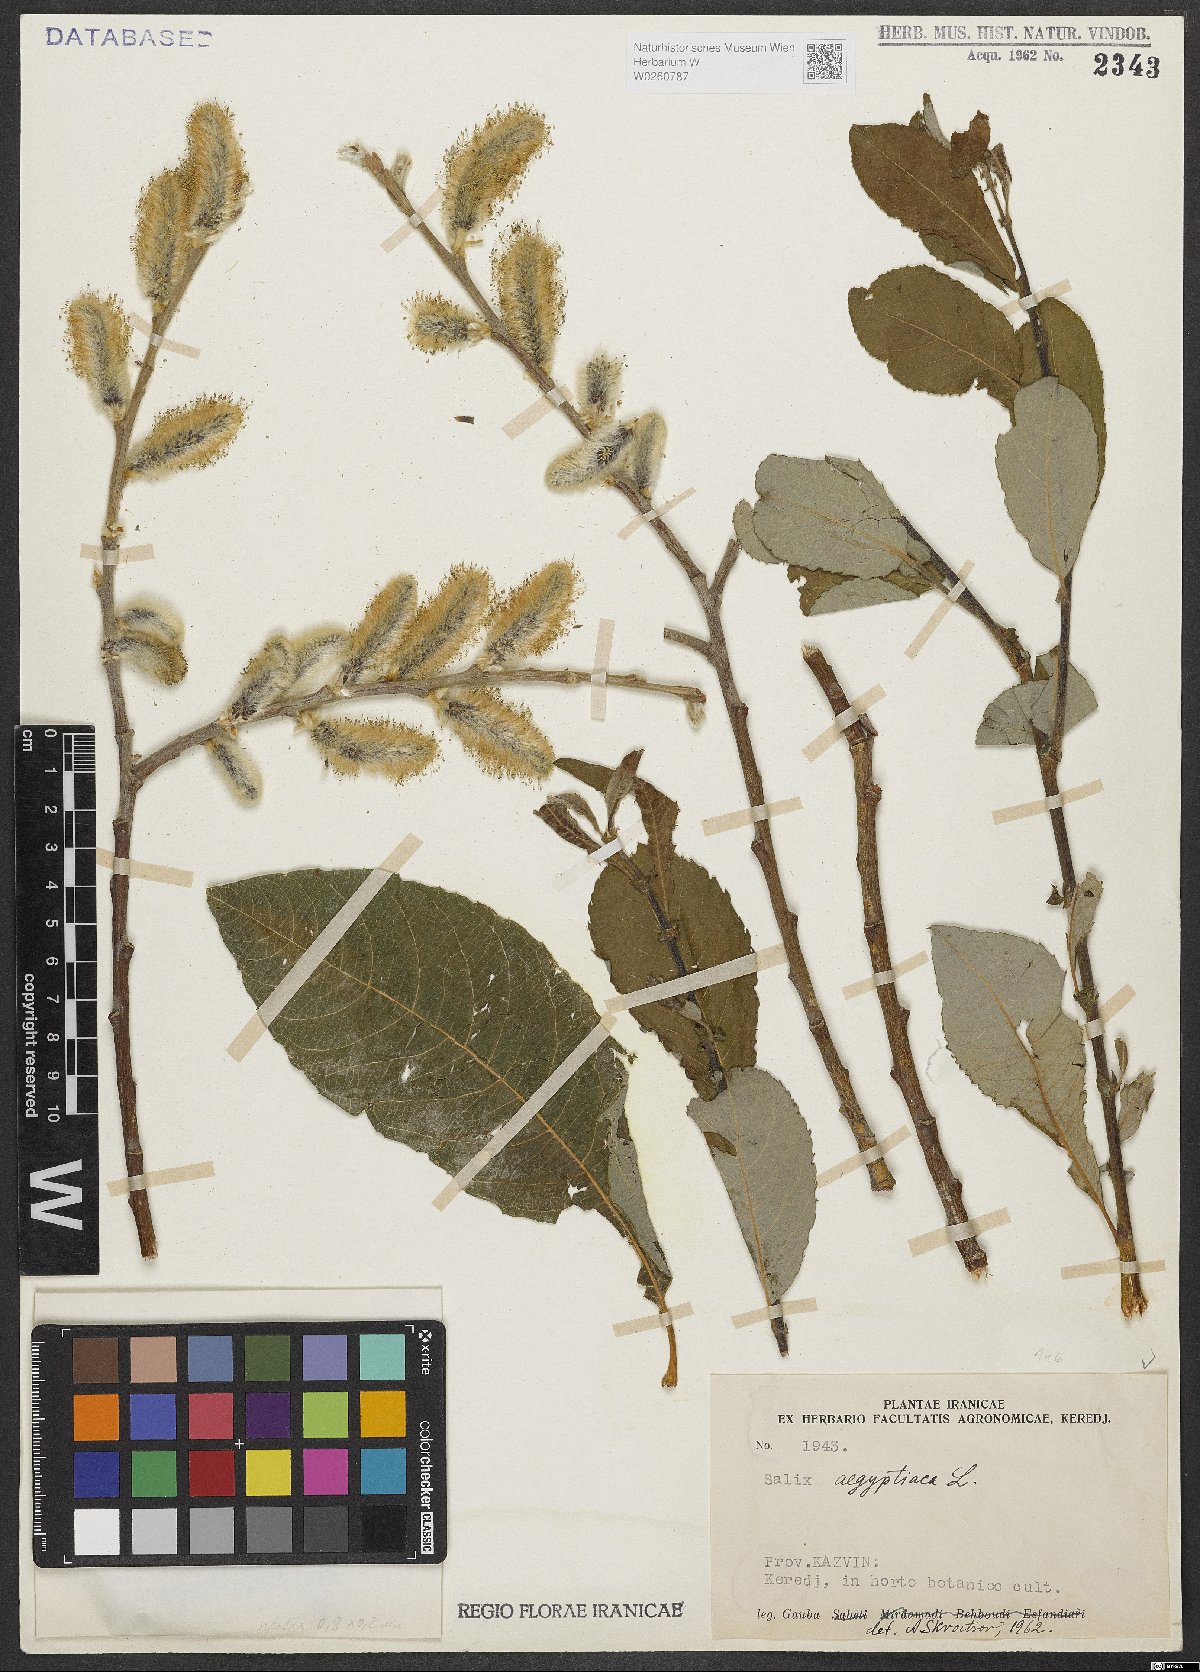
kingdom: Plantae
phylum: Tracheophyta
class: Magnoliopsida
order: Malpighiales
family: Salicaceae
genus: Salix
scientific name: Salix aegyptiaca
